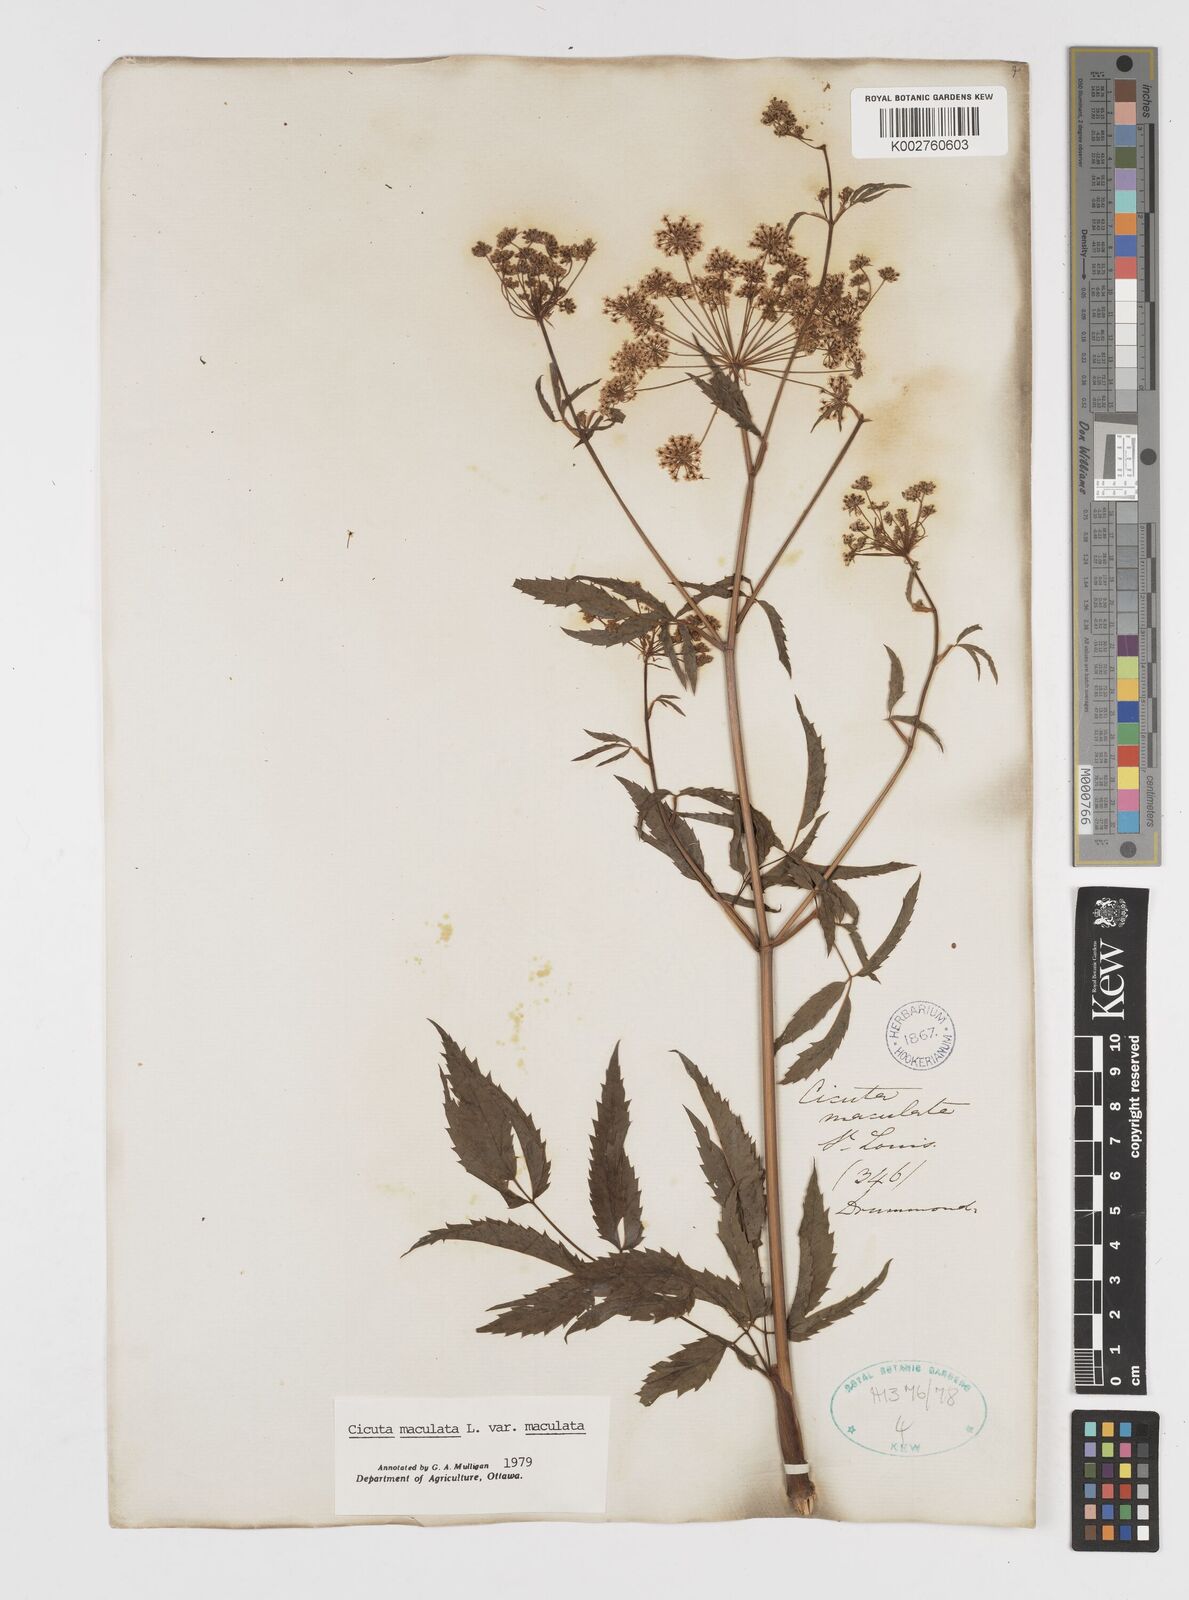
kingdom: Plantae
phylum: Tracheophyta
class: Magnoliopsida
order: Apiales
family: Apiaceae
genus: Cicuta
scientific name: Cicuta maculata
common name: Spotted cowbane
